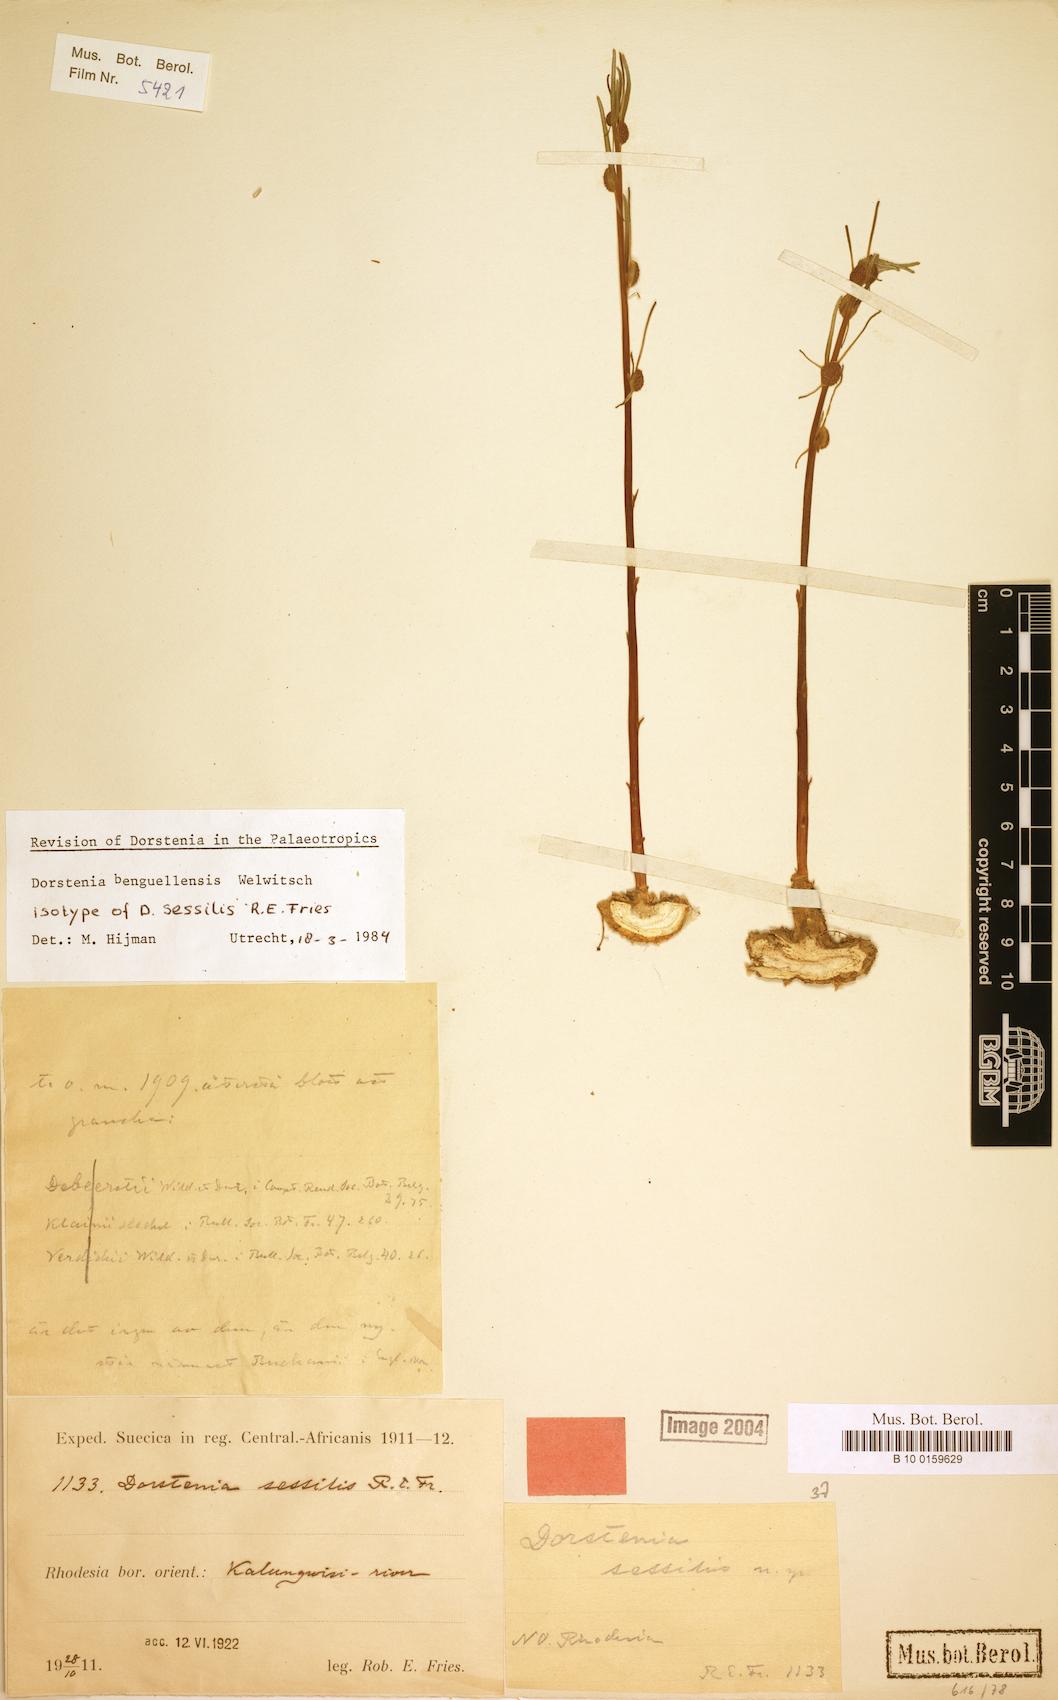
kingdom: Plantae
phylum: Tracheophyta
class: Magnoliopsida
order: Rosales
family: Moraceae
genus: Dorstenia
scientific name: Dorstenia benguellensis
